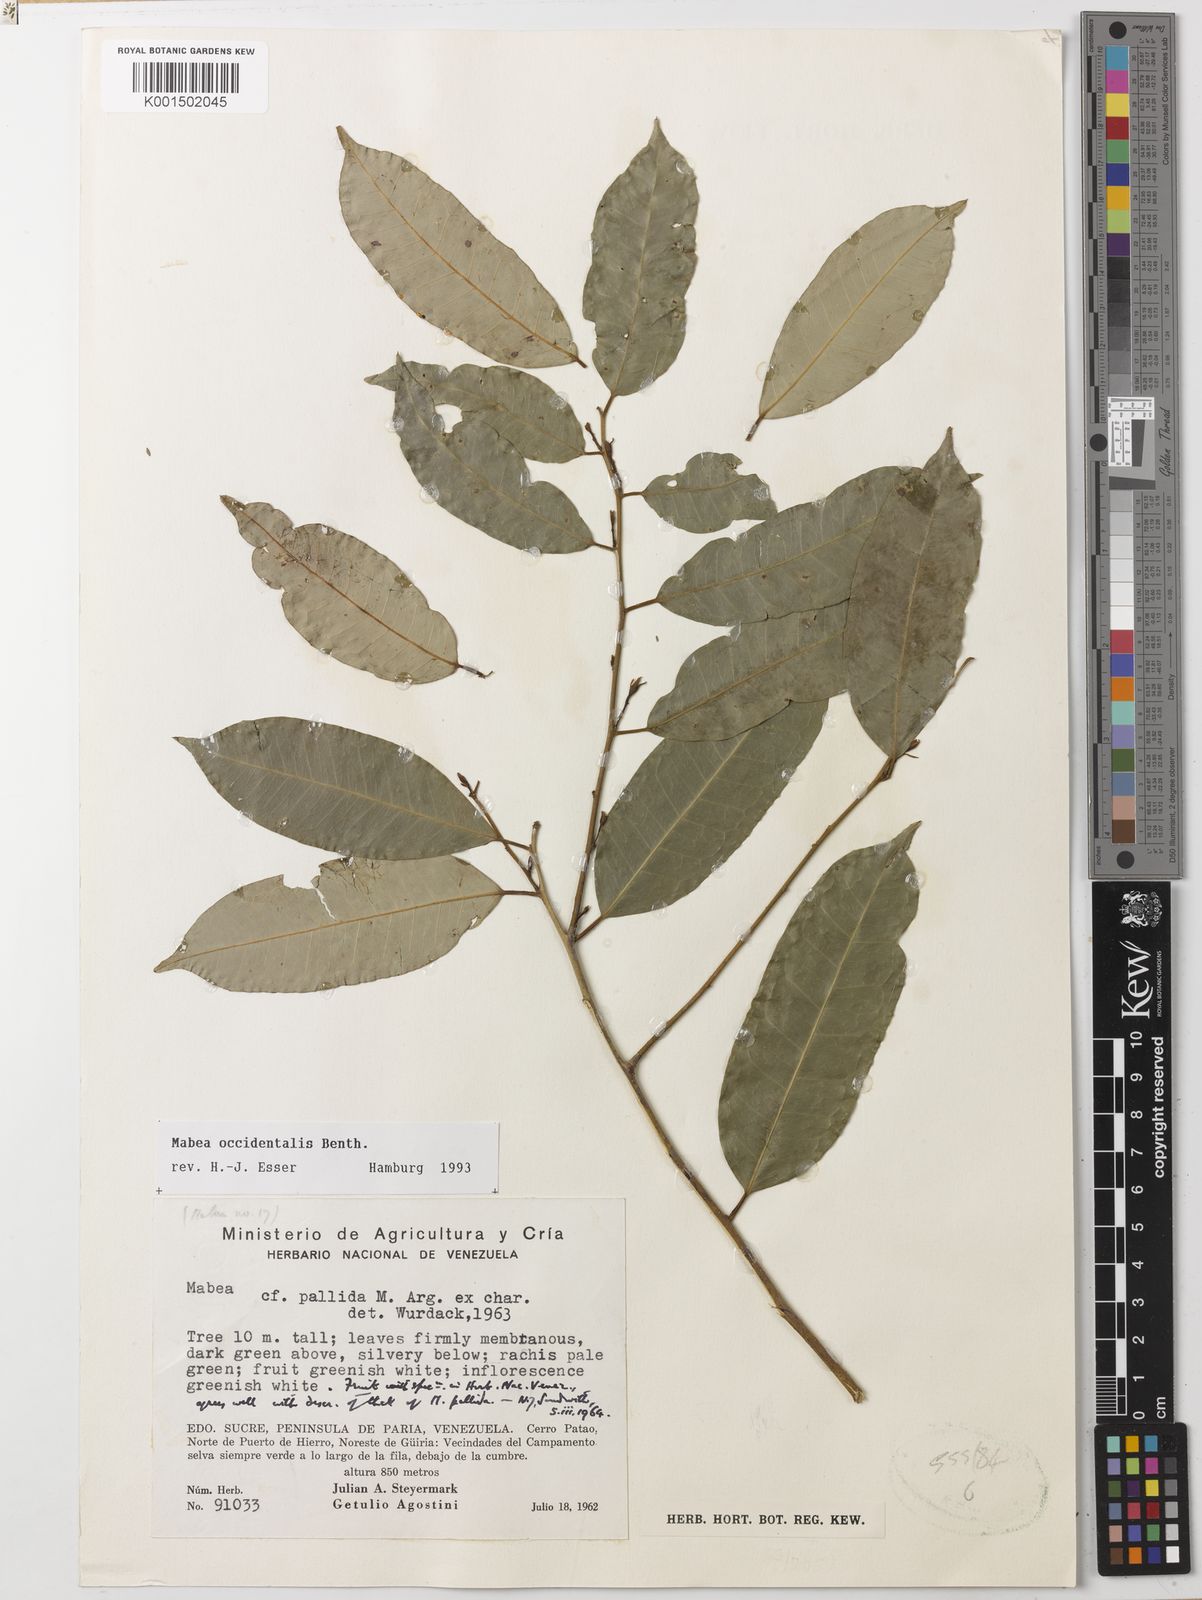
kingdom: Plantae
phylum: Tracheophyta
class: Magnoliopsida
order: Malpighiales
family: Euphorbiaceae
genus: Mabea
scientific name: Mabea occidentalis
